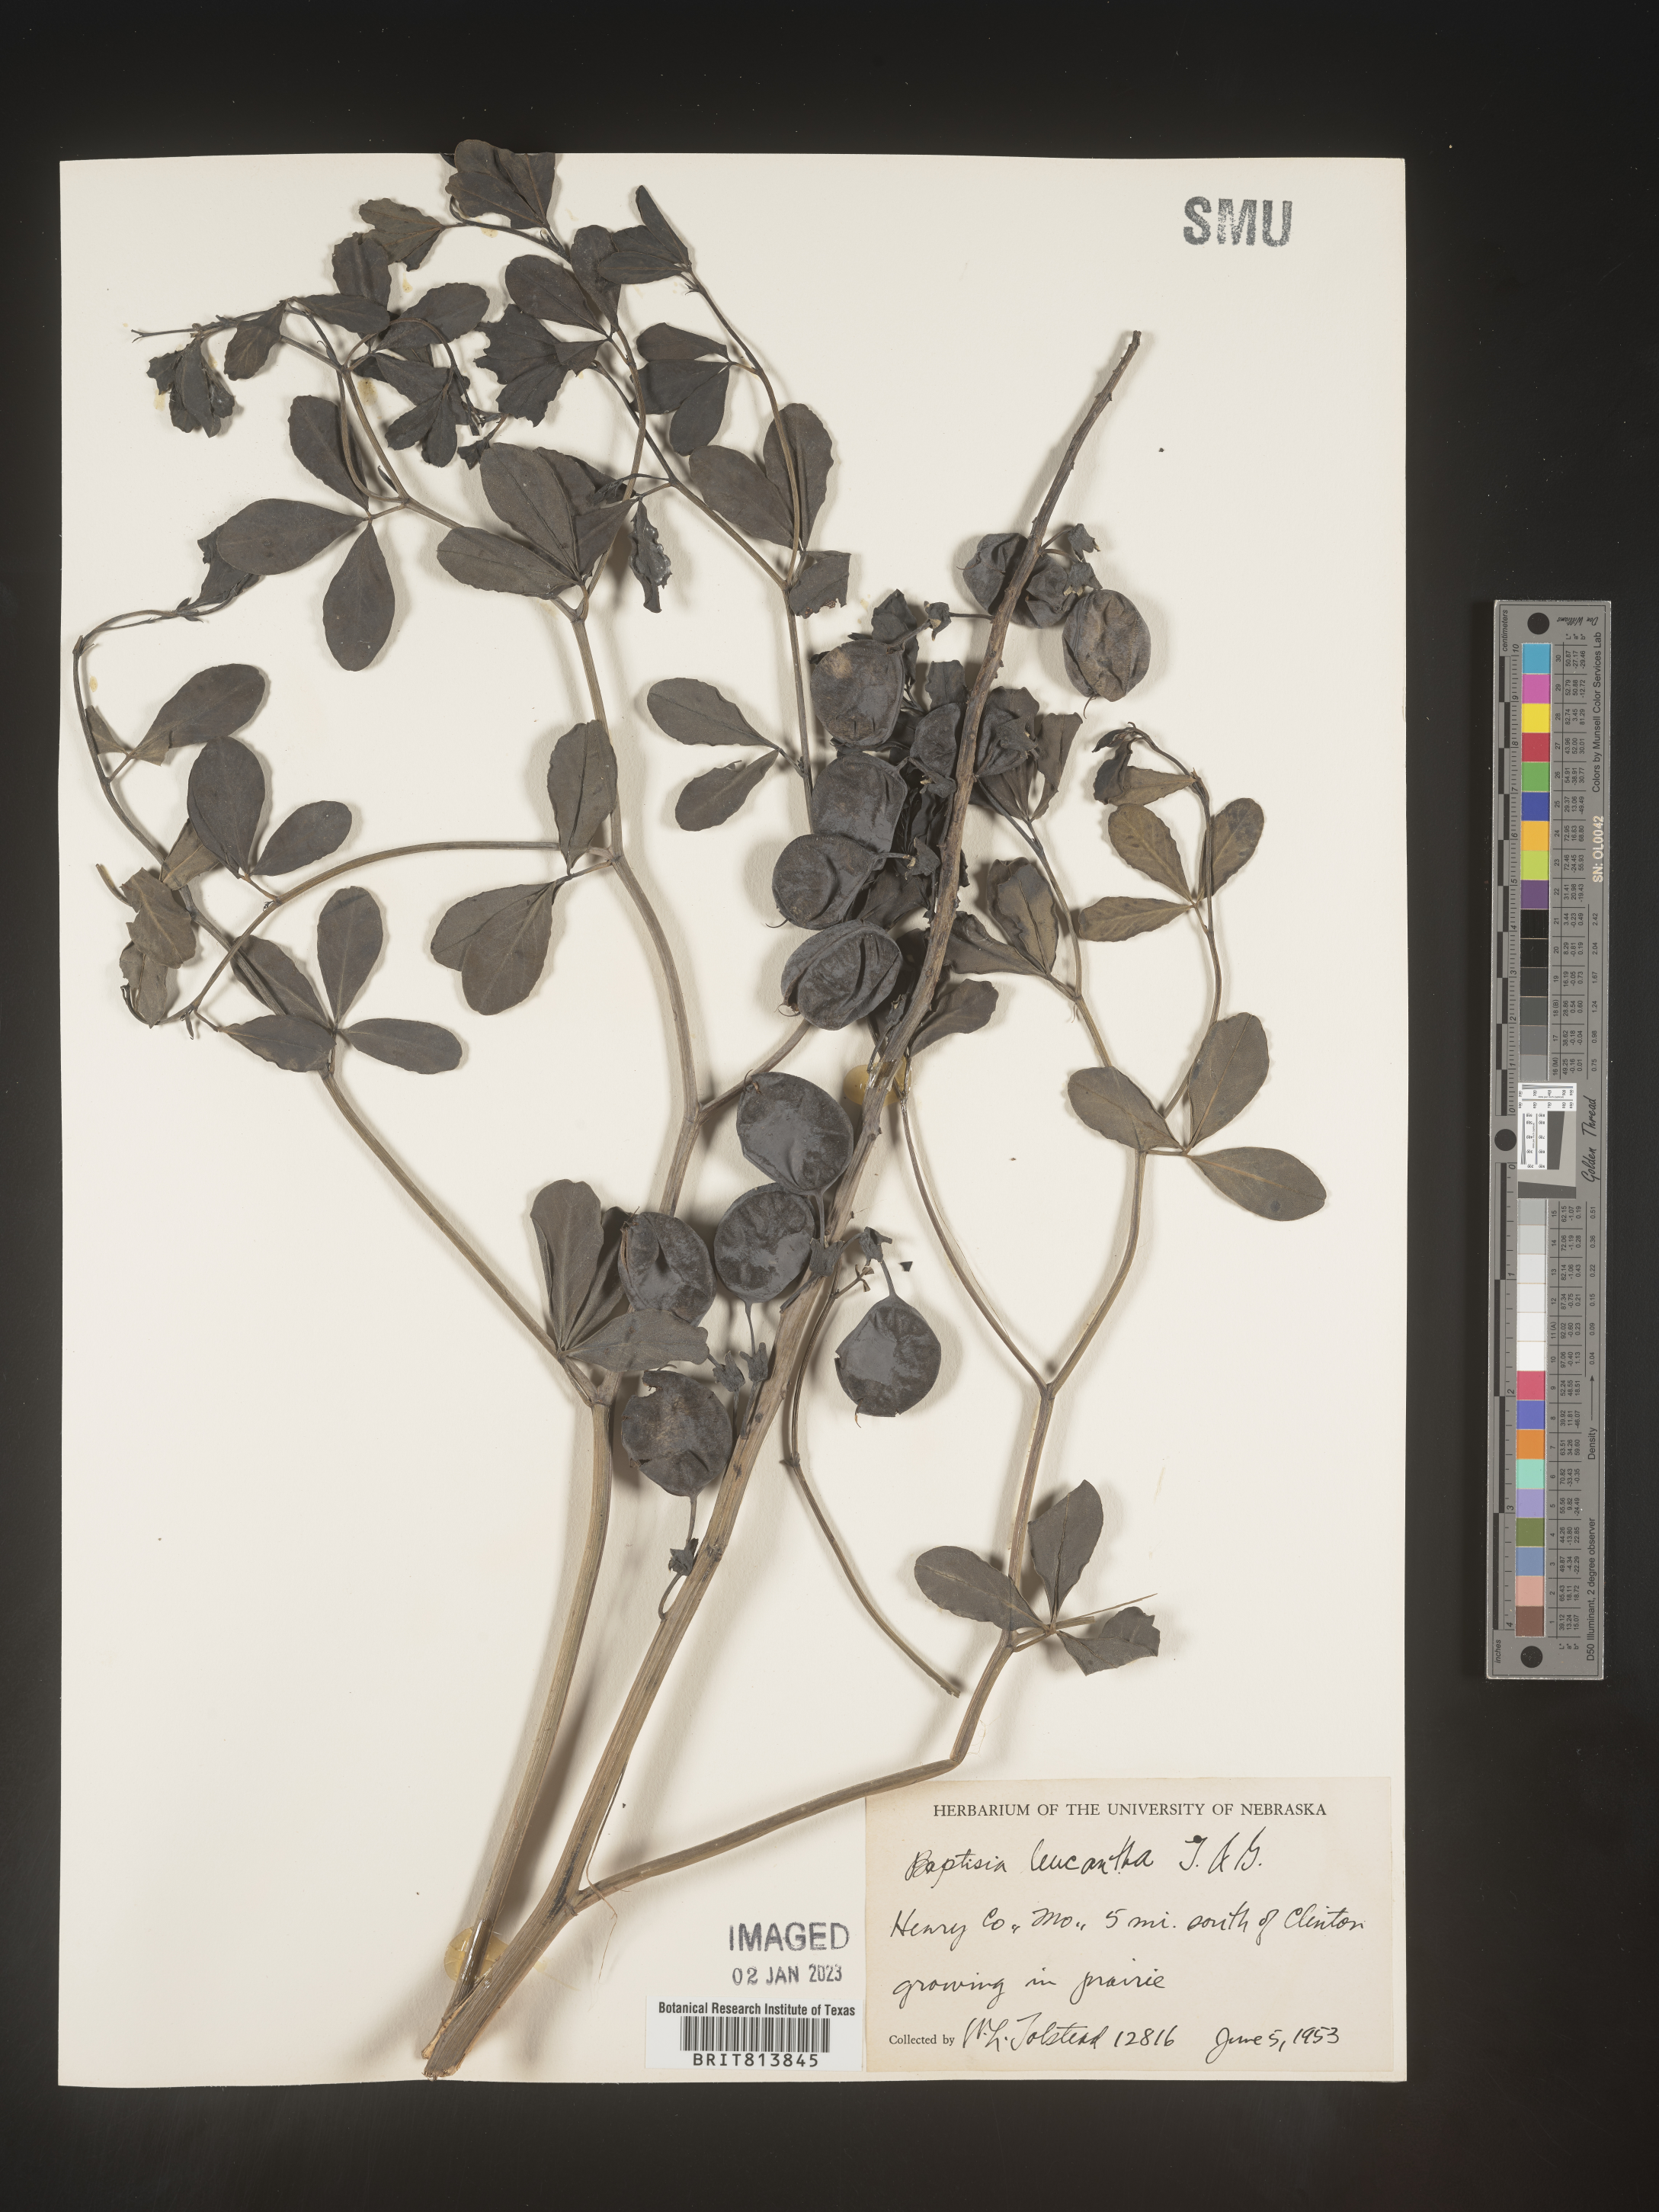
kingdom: Plantae
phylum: Tracheophyta
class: Magnoliopsida
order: Fabales
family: Fabaceae
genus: Baptisia
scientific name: Baptisia alba
